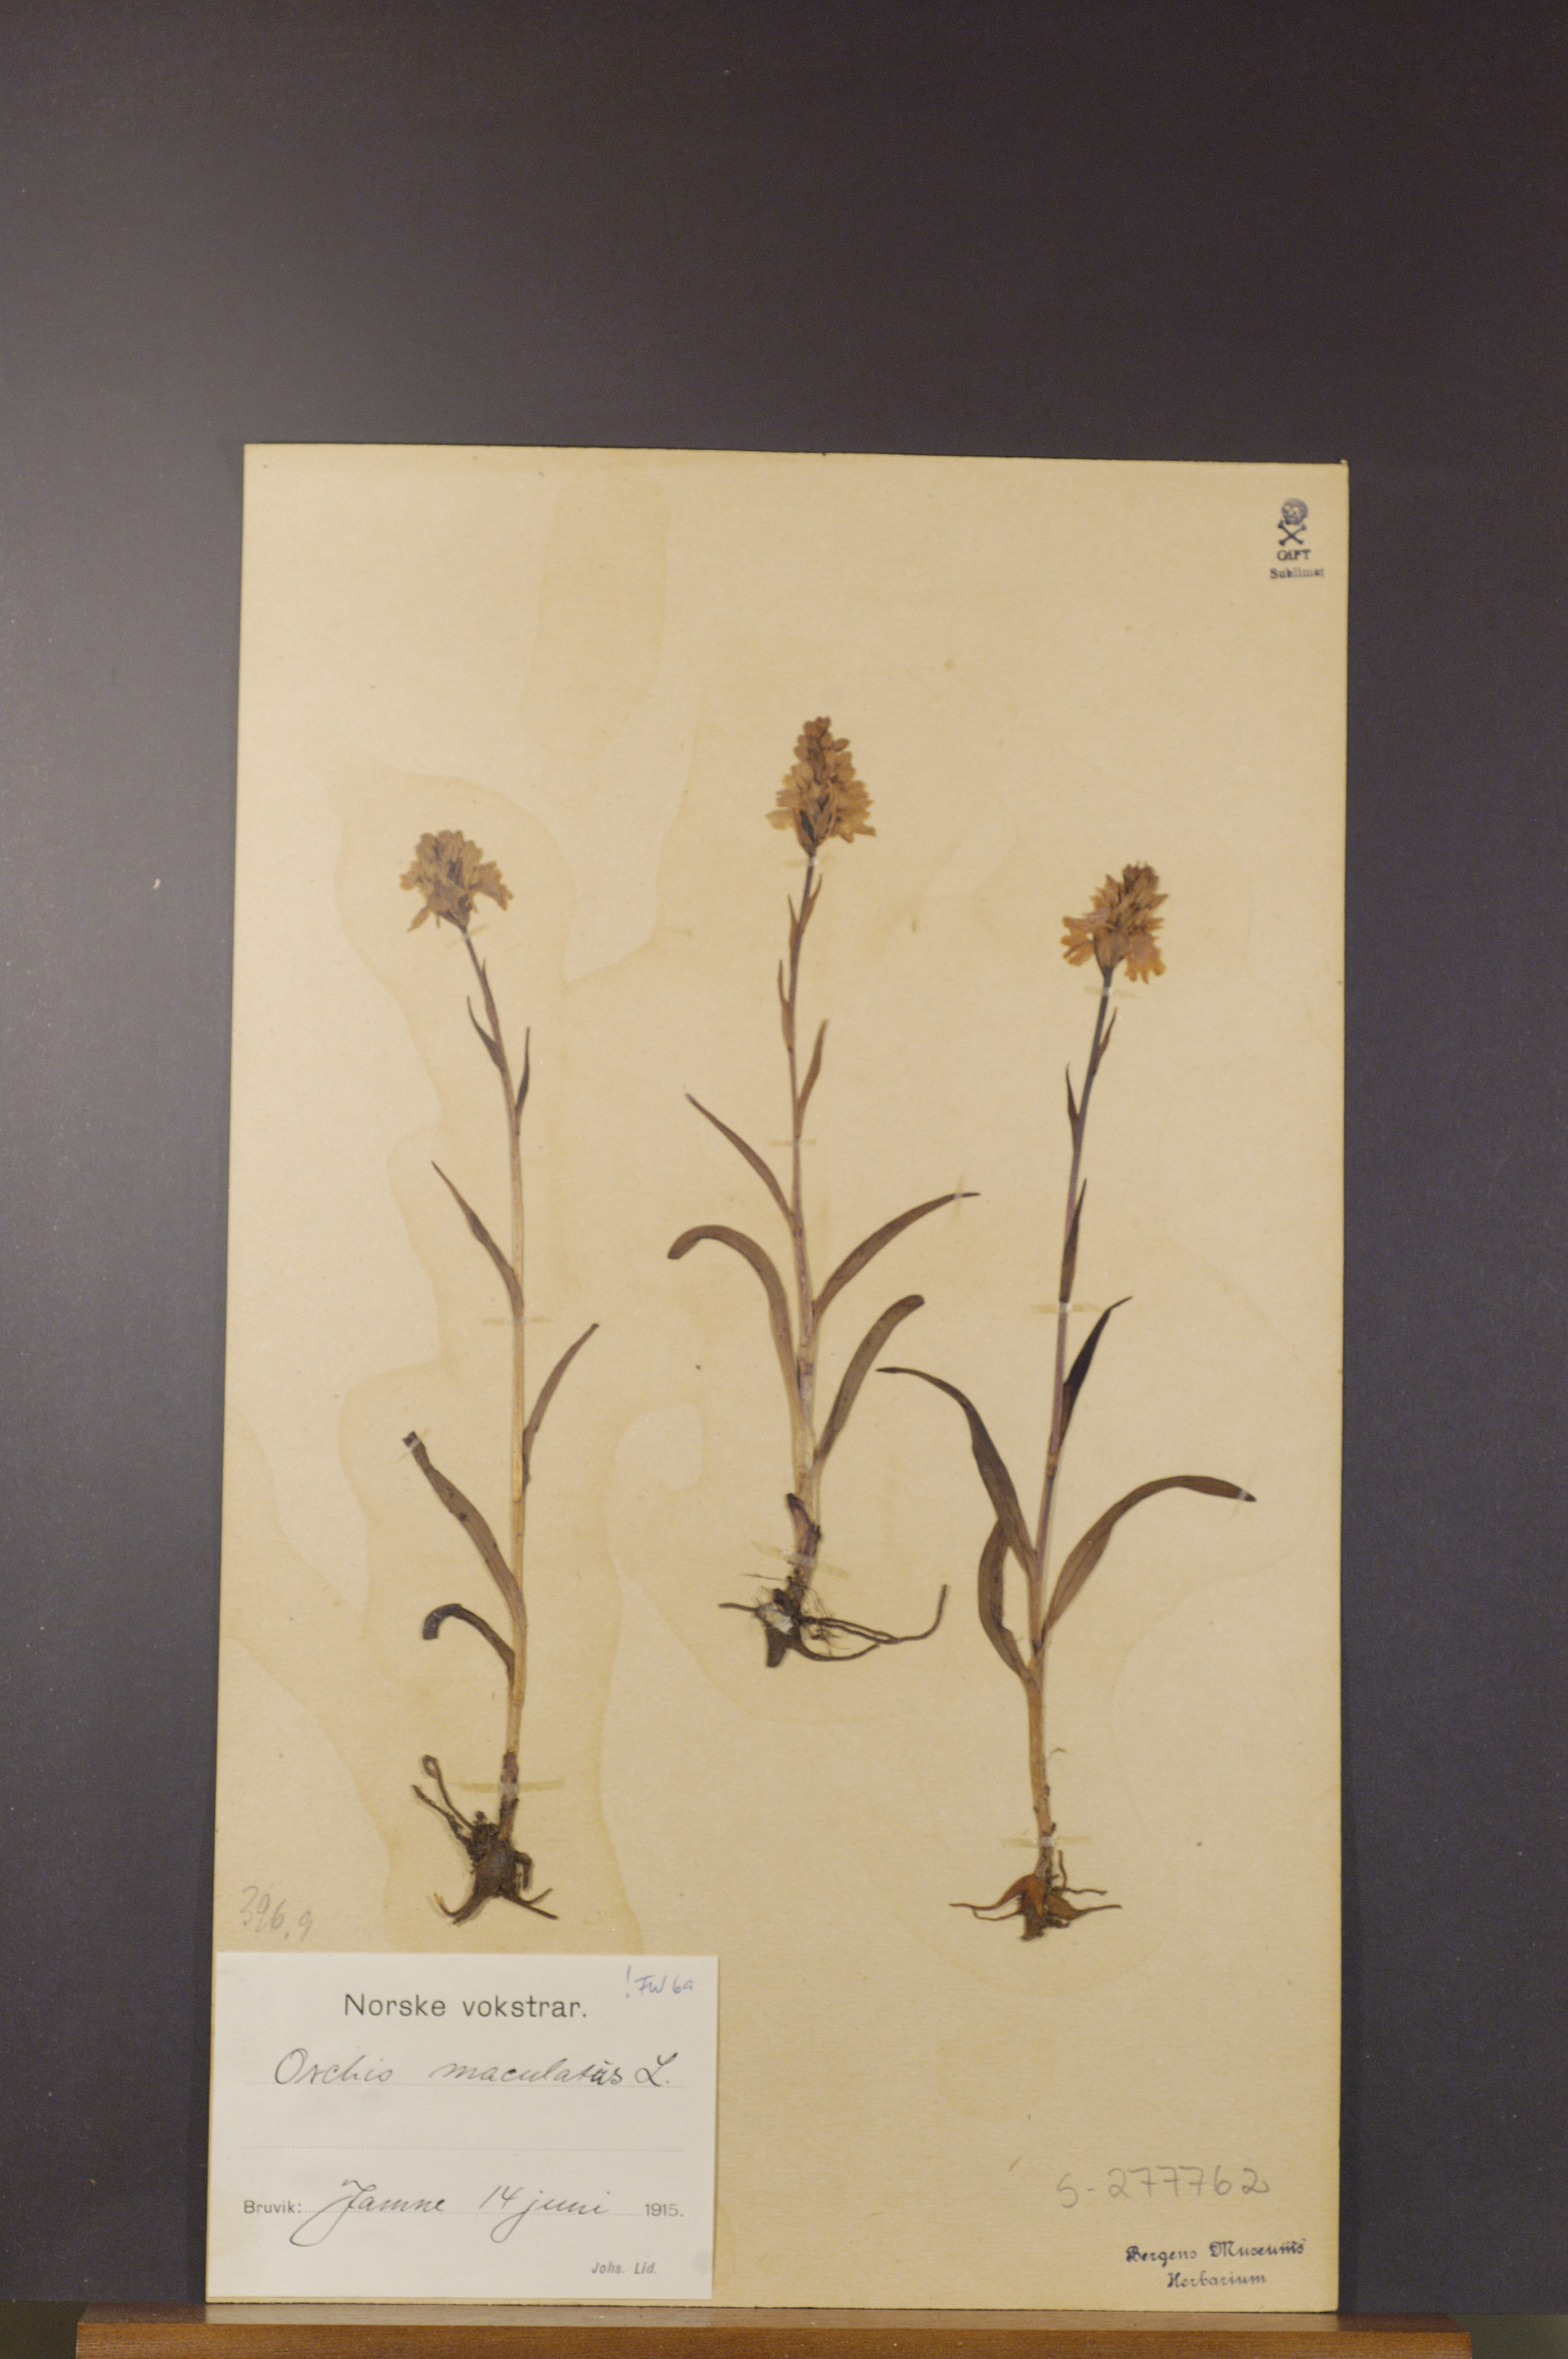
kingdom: Plantae
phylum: Tracheophyta
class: Liliopsida
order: Asparagales
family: Orchidaceae
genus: Dactylorhiza
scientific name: Dactylorhiza maculata
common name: Heath spotted-orchid
